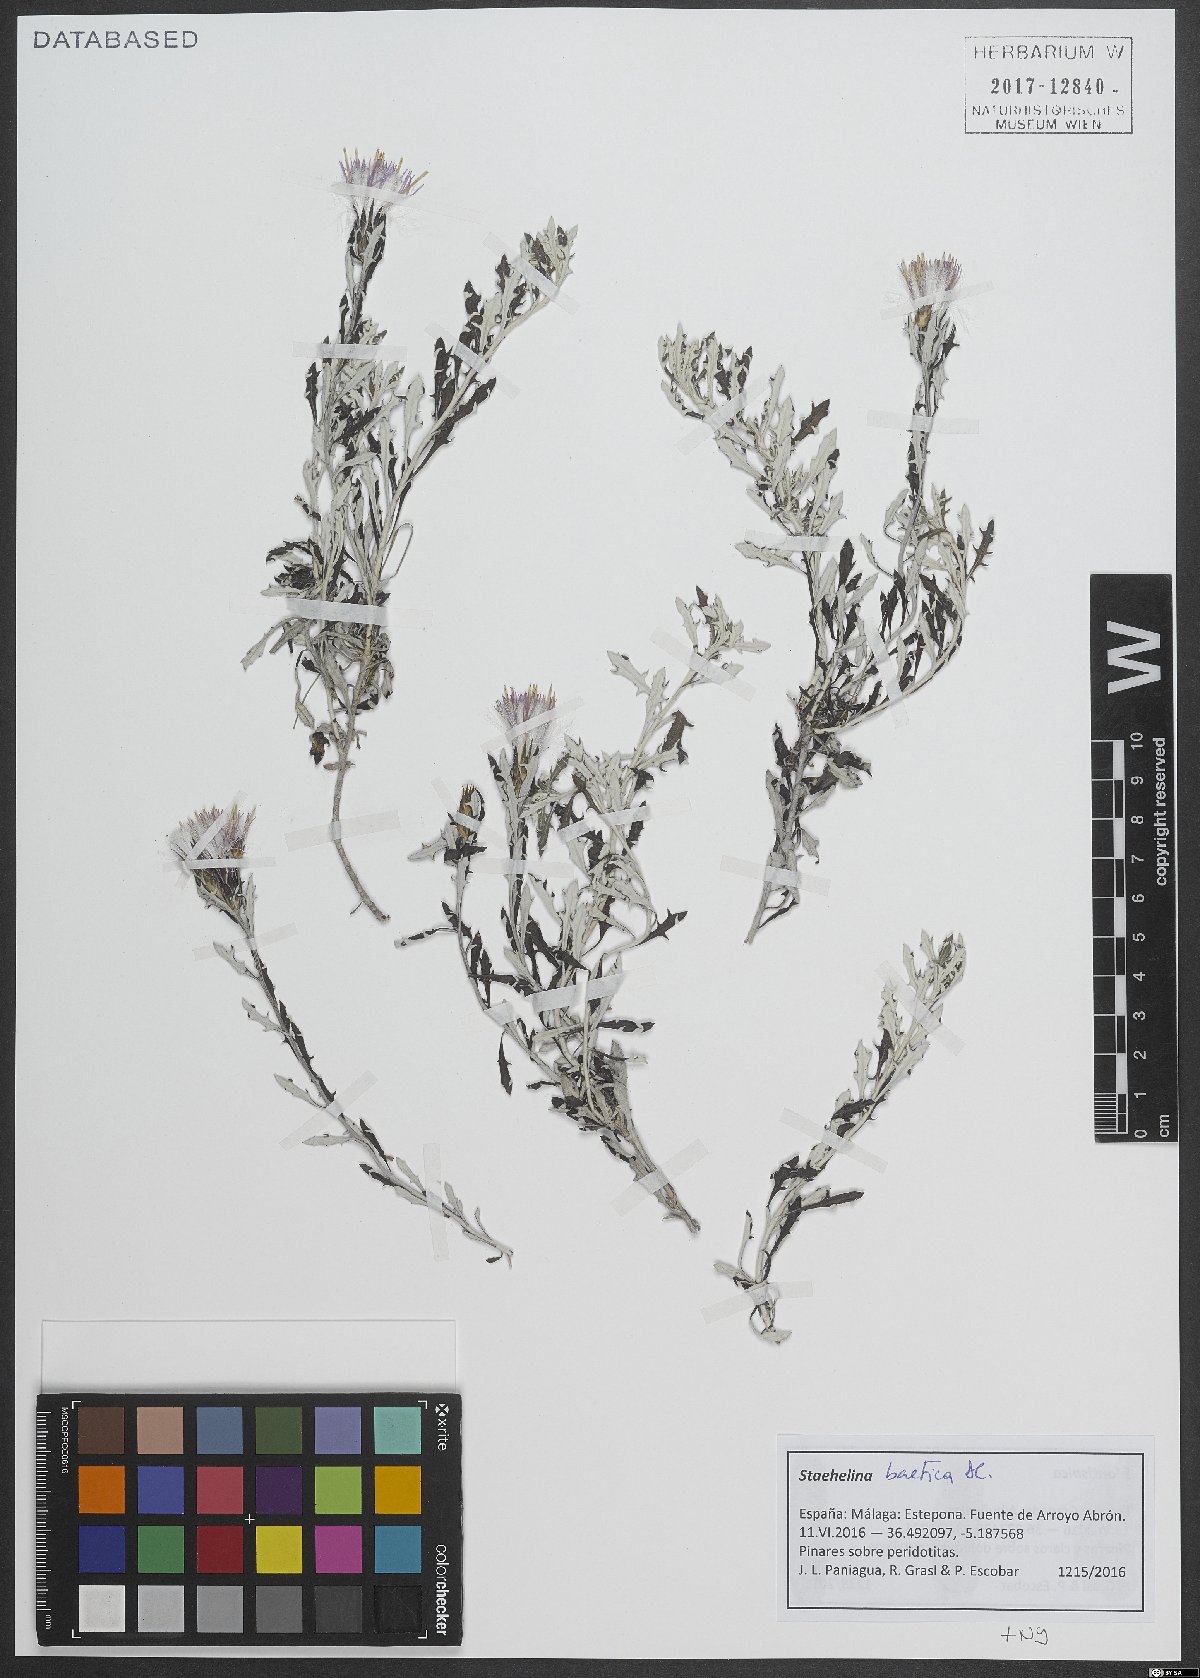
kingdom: Plantae
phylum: Tracheophyta
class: Magnoliopsida
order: Asterales
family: Asteraceae
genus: Staehelina
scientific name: Staehelina baetica
